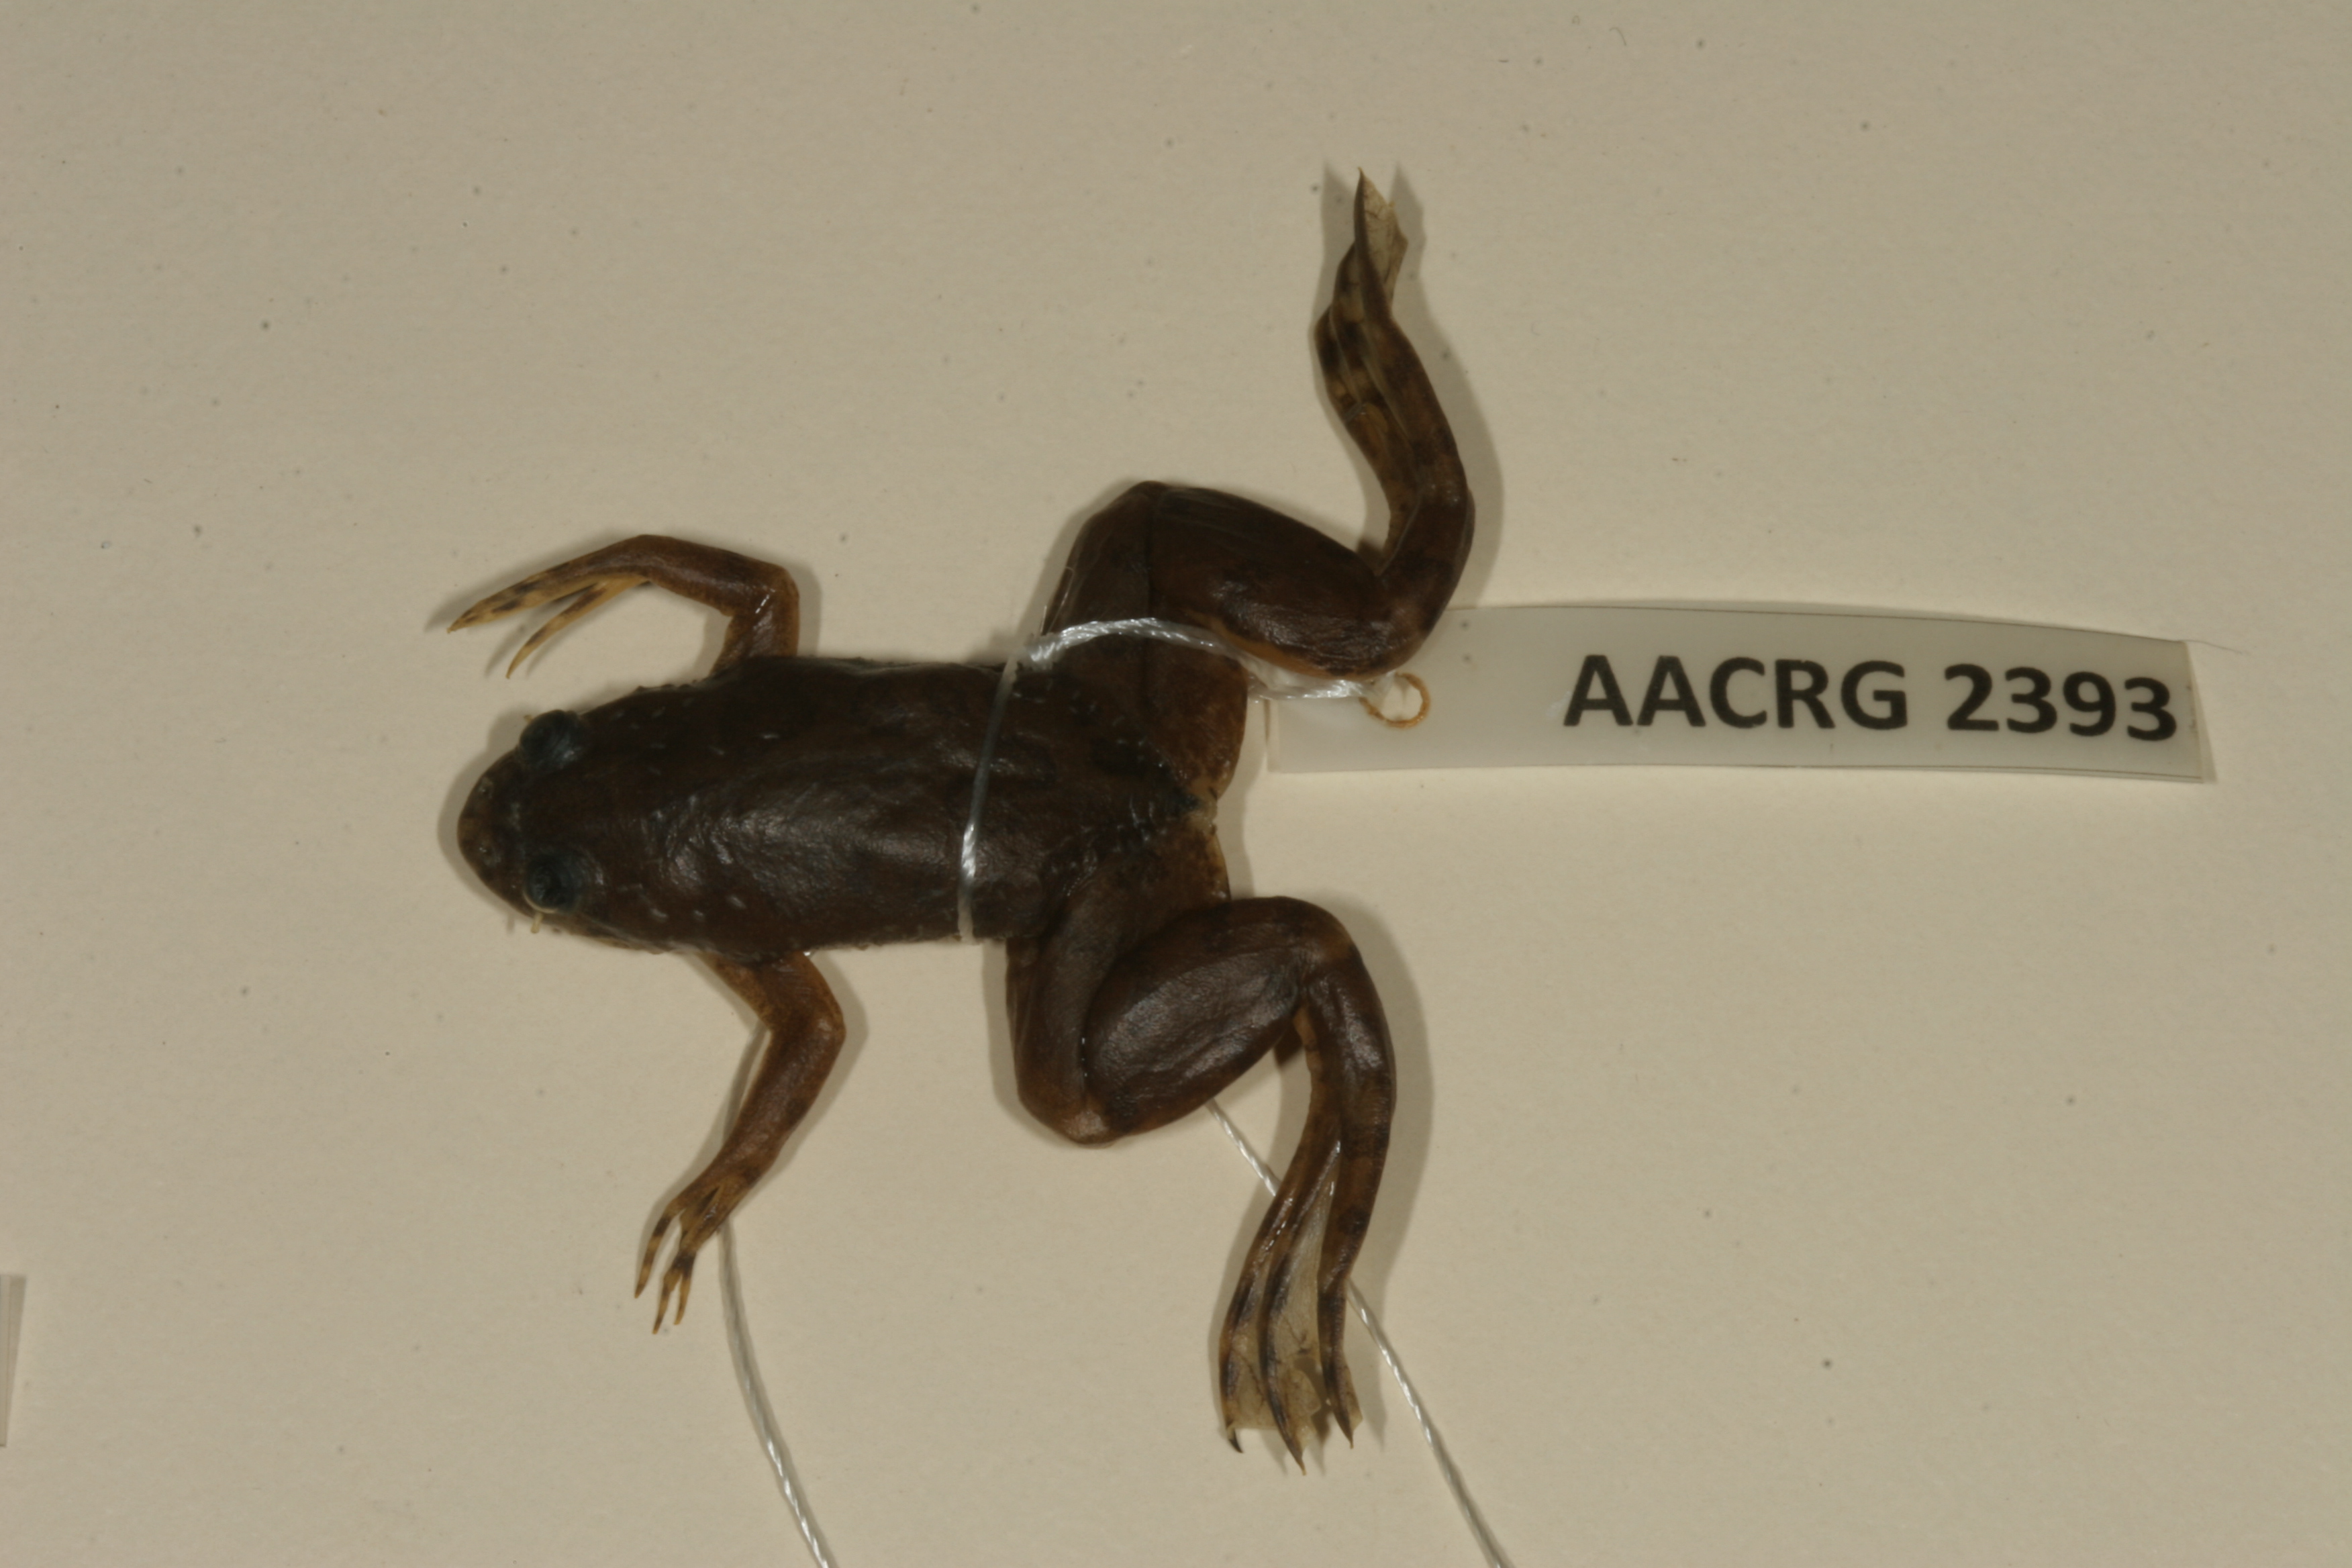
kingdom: Animalia
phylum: Chordata
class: Amphibia
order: Anura
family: Pipidae
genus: Xenopus
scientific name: Xenopus muelleri
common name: Muller's clawed frog
